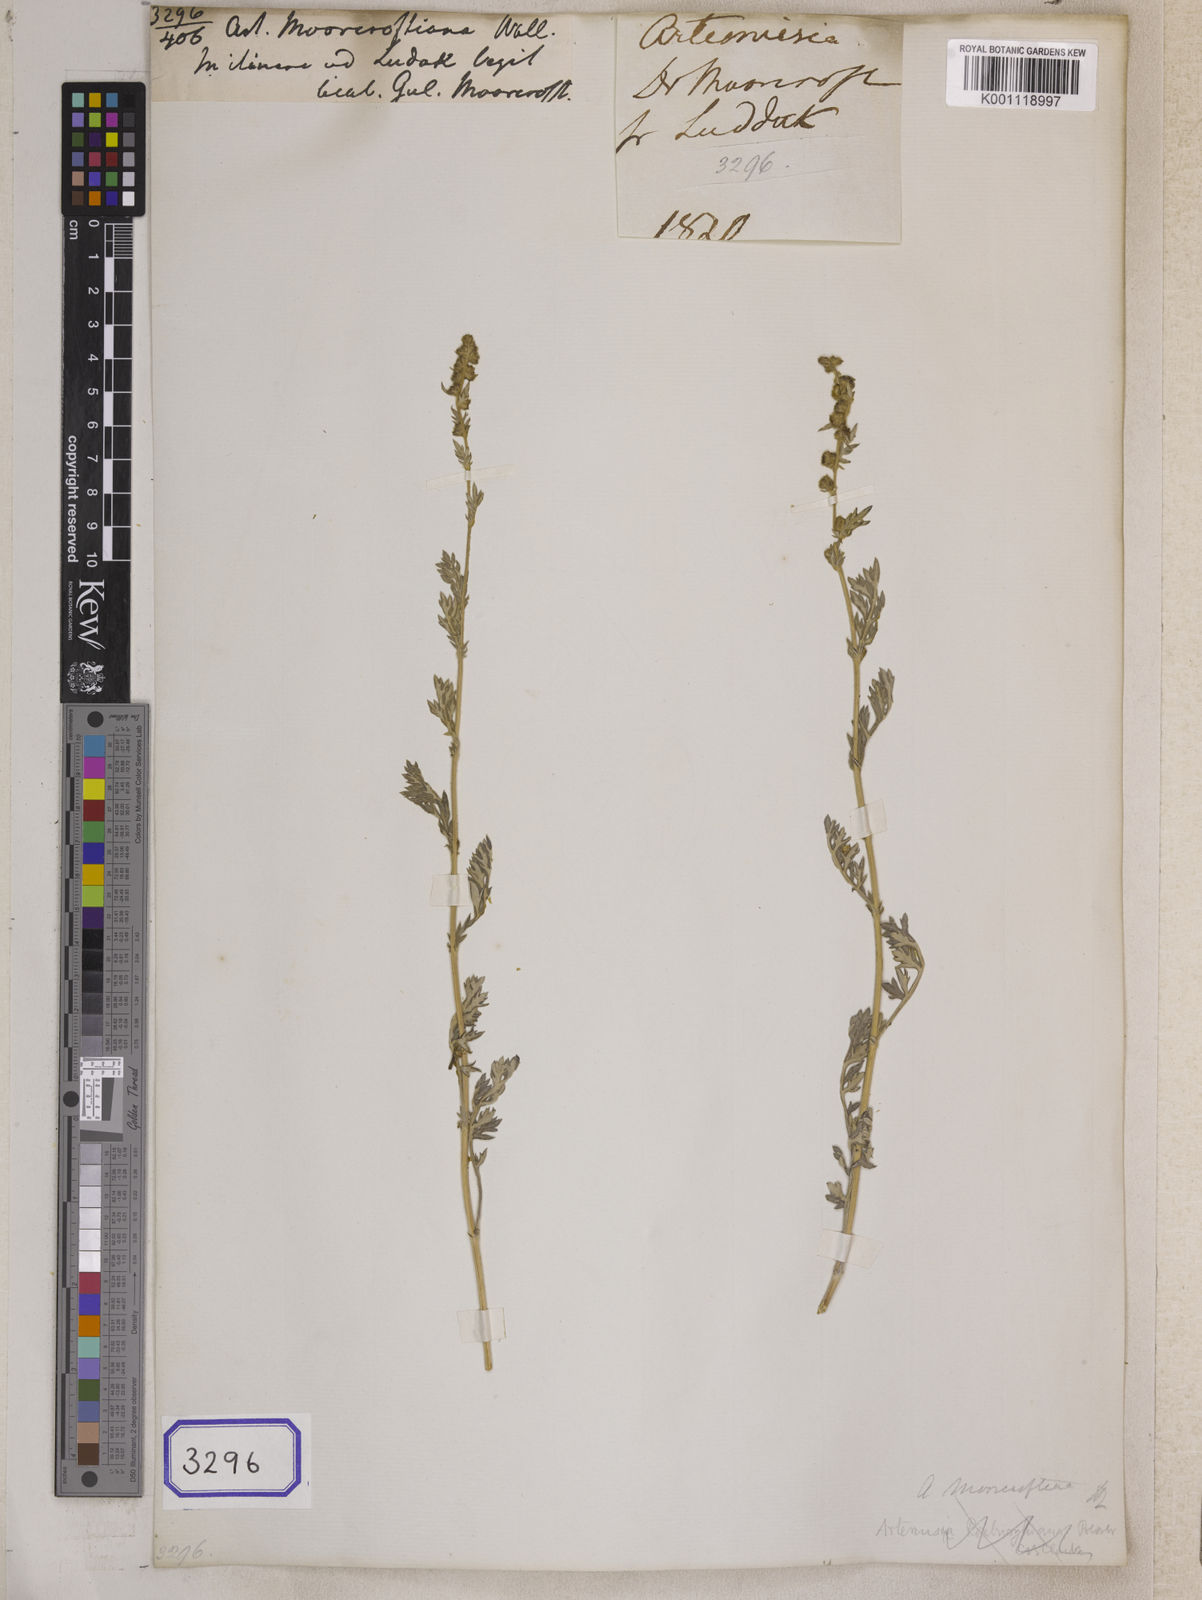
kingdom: Plantae
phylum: Tracheophyta
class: Magnoliopsida
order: Asterales
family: Asteraceae
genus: Artemisia
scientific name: Artemisia imponens
